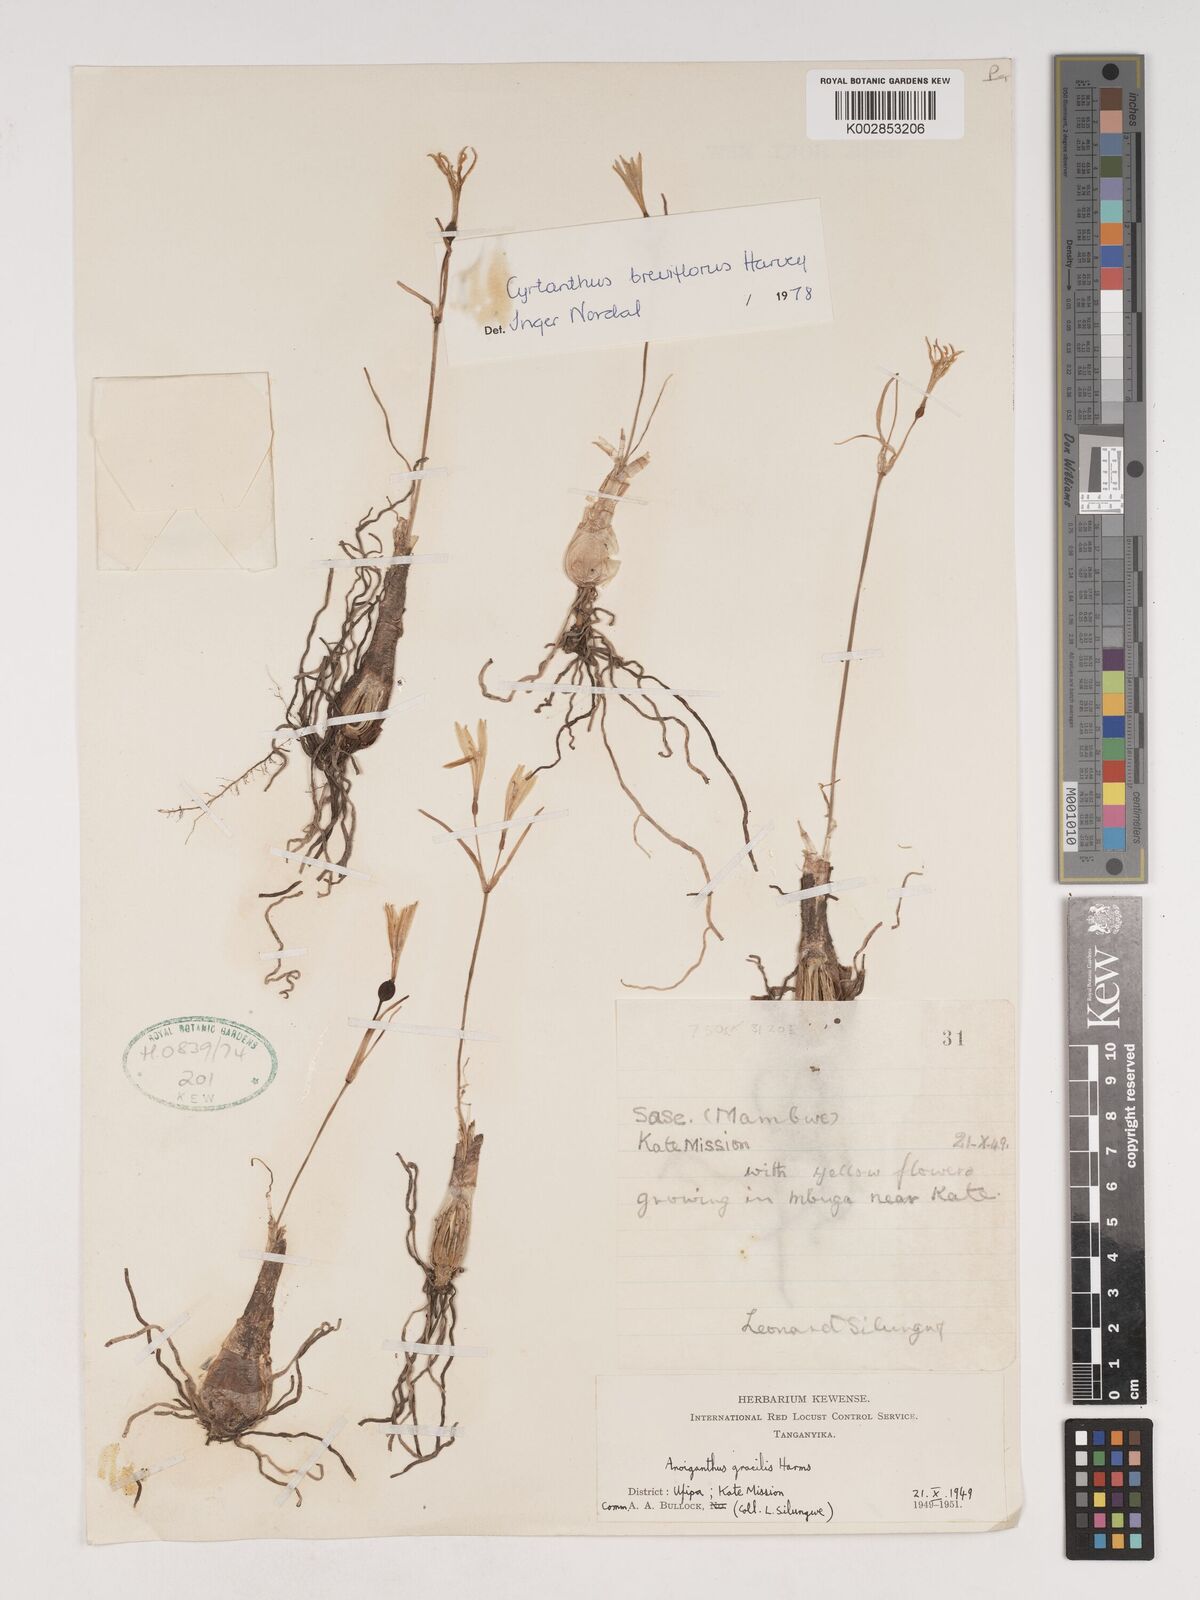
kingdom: Plantae
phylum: Tracheophyta
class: Liliopsida
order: Asparagales
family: Amaryllidaceae
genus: Cyrtanthus
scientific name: Cyrtanthus breviflorus
